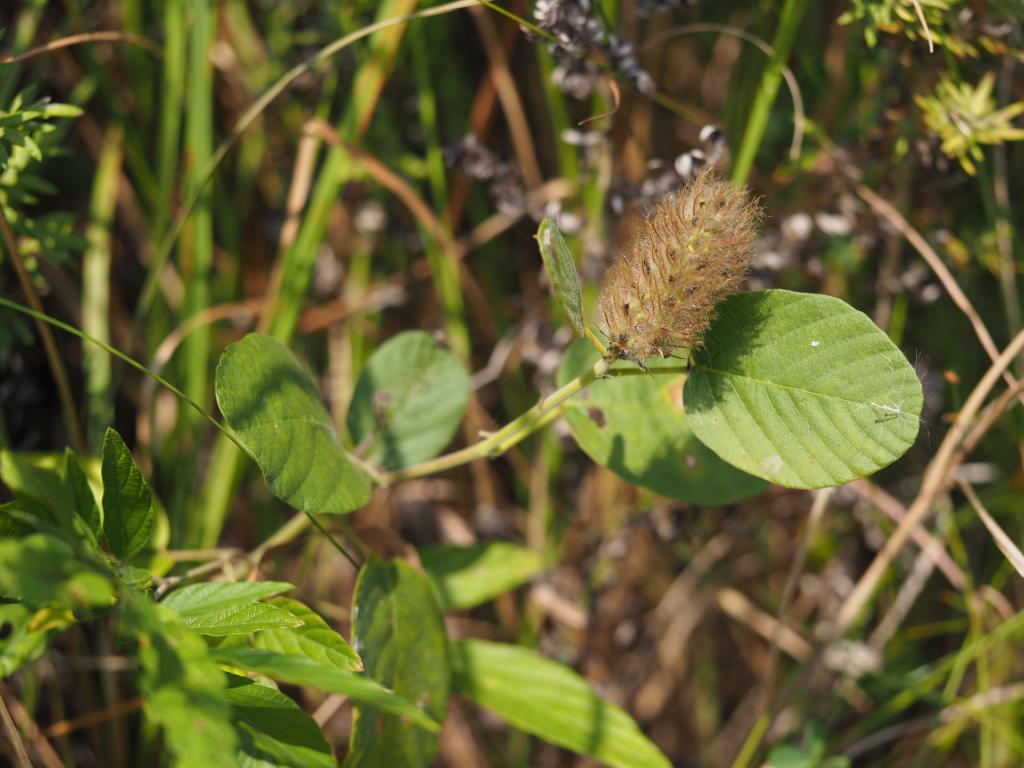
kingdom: Plantae
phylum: Tracheophyta
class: Magnoliopsida
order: Fabales
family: Fabaceae
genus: Uraria
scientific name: Uraria lagopodioides
